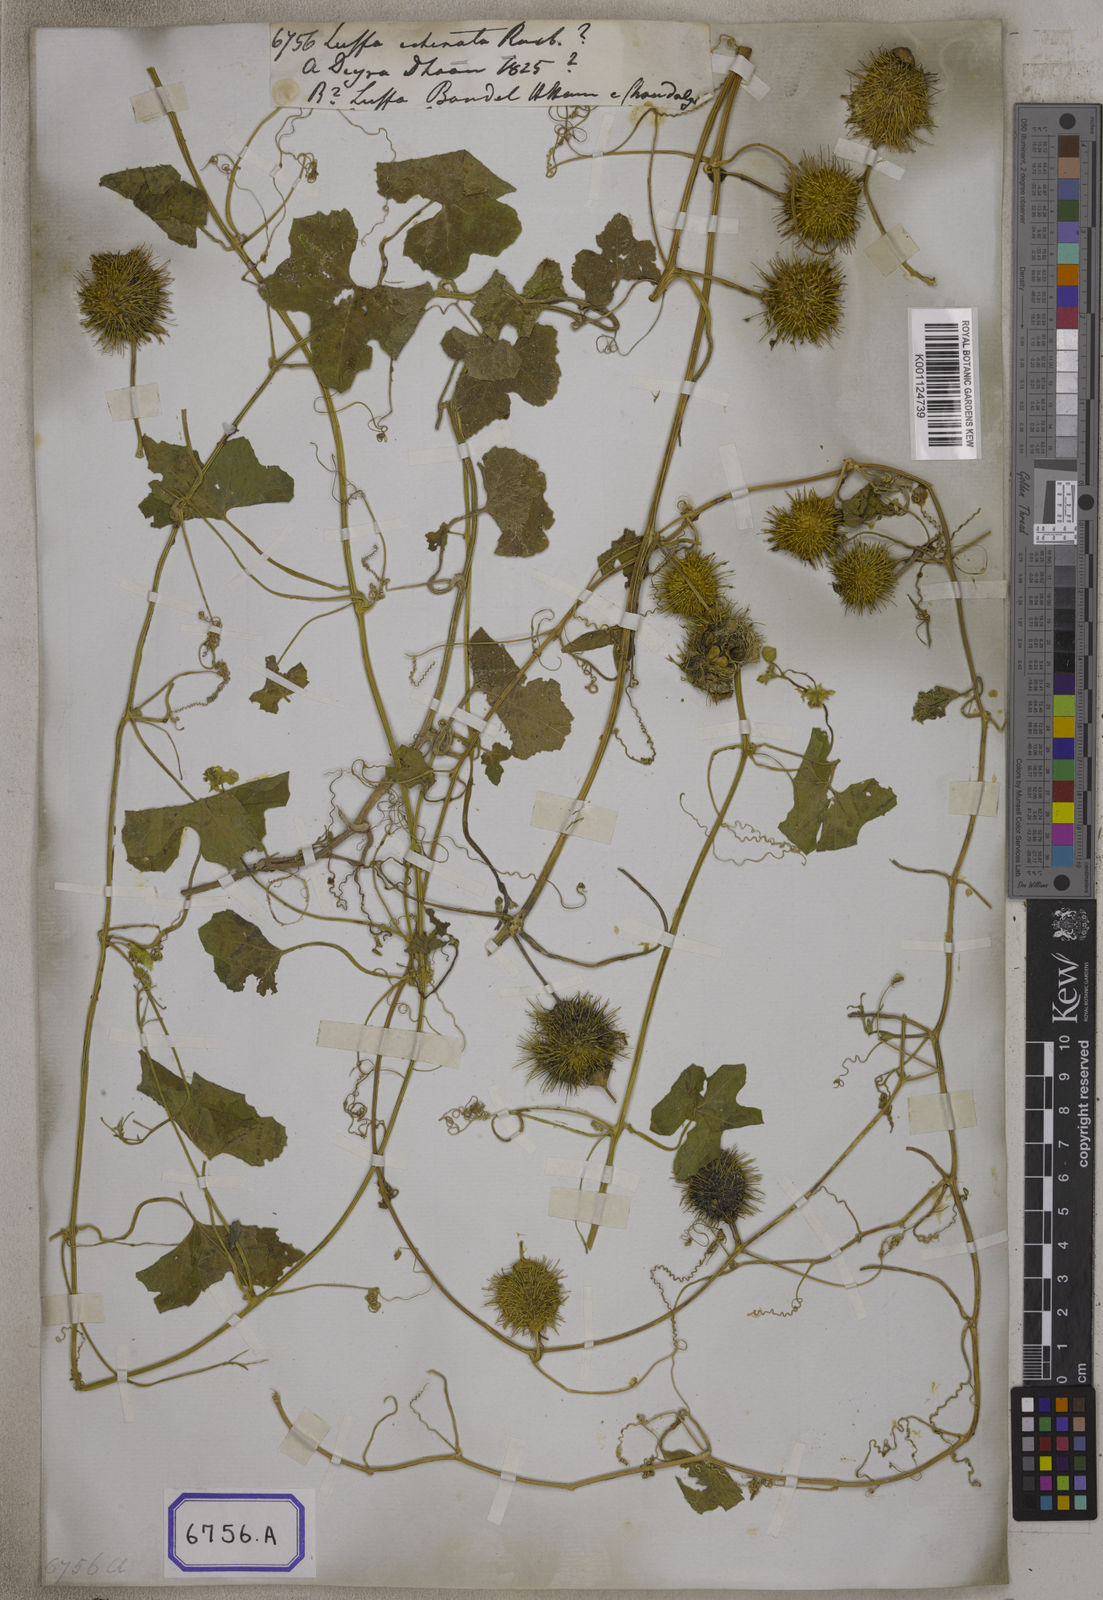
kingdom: Plantae
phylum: Tracheophyta
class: Magnoliopsida
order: Cucurbitales
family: Cucurbitaceae
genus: Luffa
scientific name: Luffa echinata
